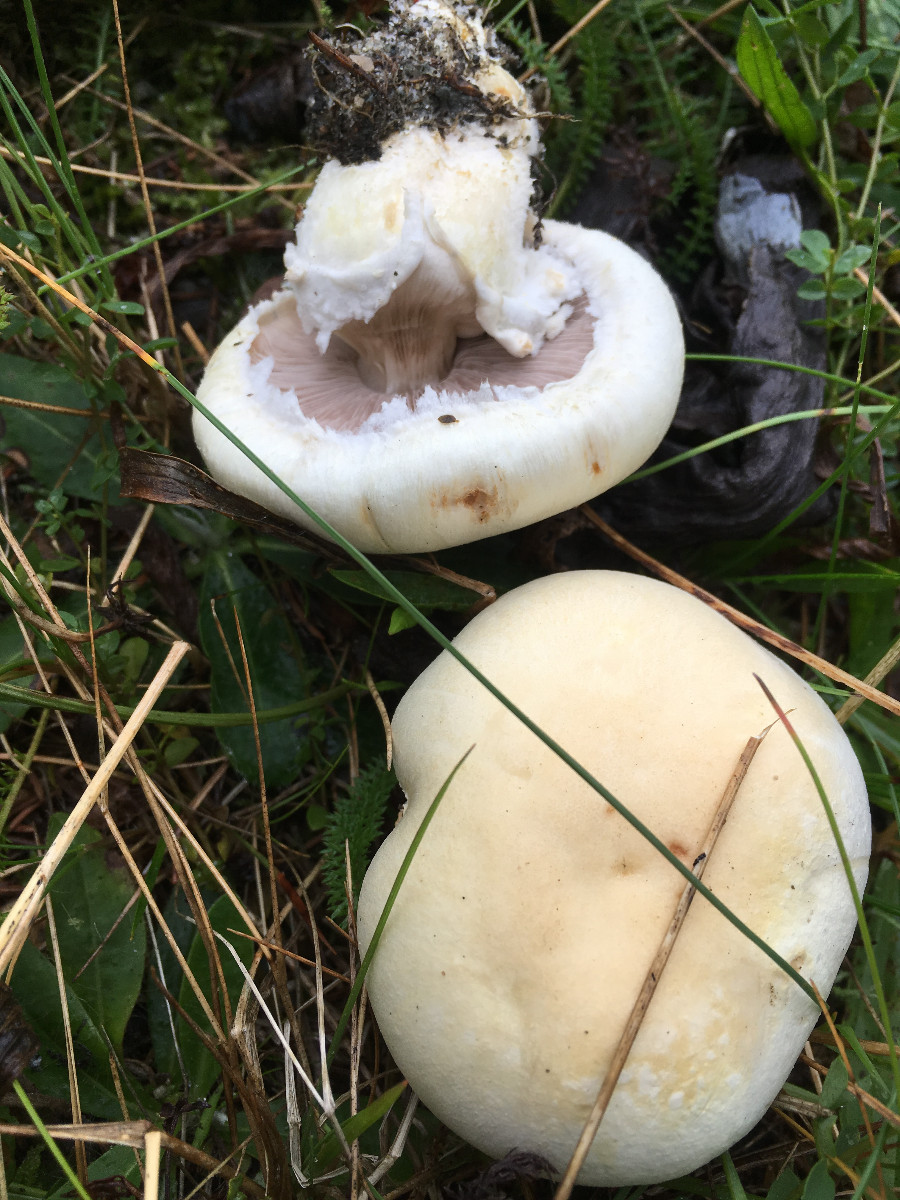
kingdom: Fungi
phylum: Basidiomycota
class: Agaricomycetes
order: Agaricales
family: Agaricaceae
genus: Agaricus
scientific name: Agaricus
